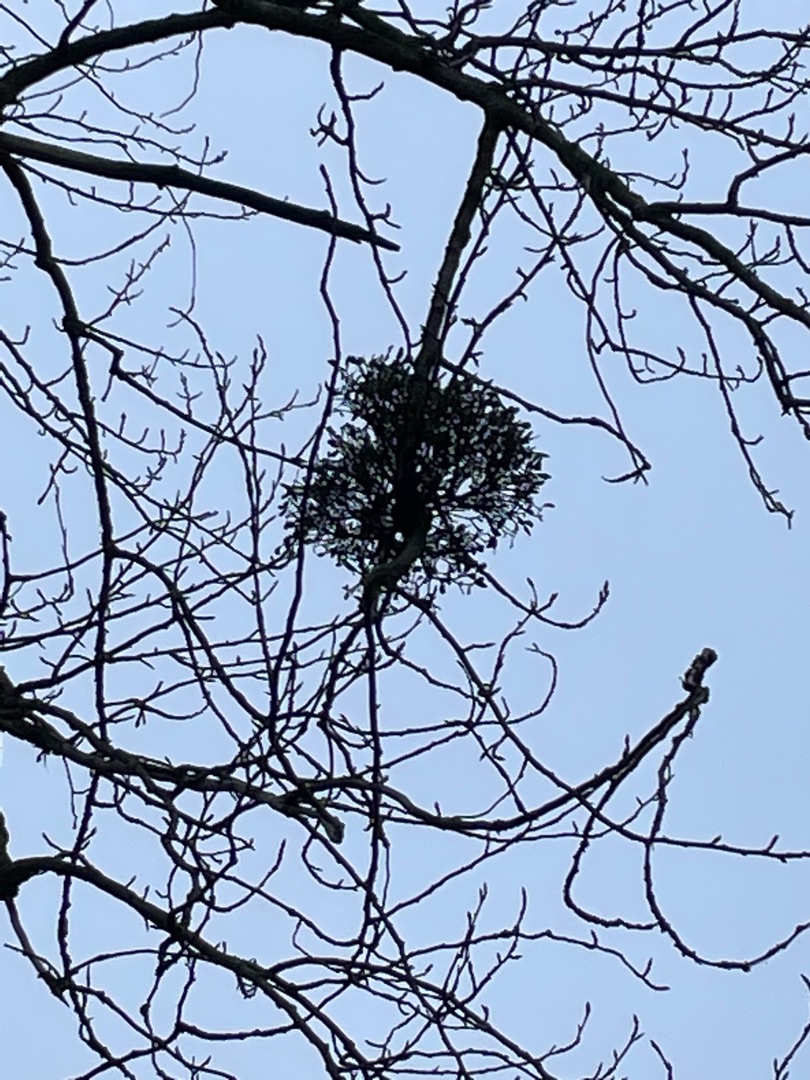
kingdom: Plantae
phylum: Tracheophyta
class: Magnoliopsida
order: Santalales
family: Viscaceae
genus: Viscum
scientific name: Viscum album
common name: Mistelten
